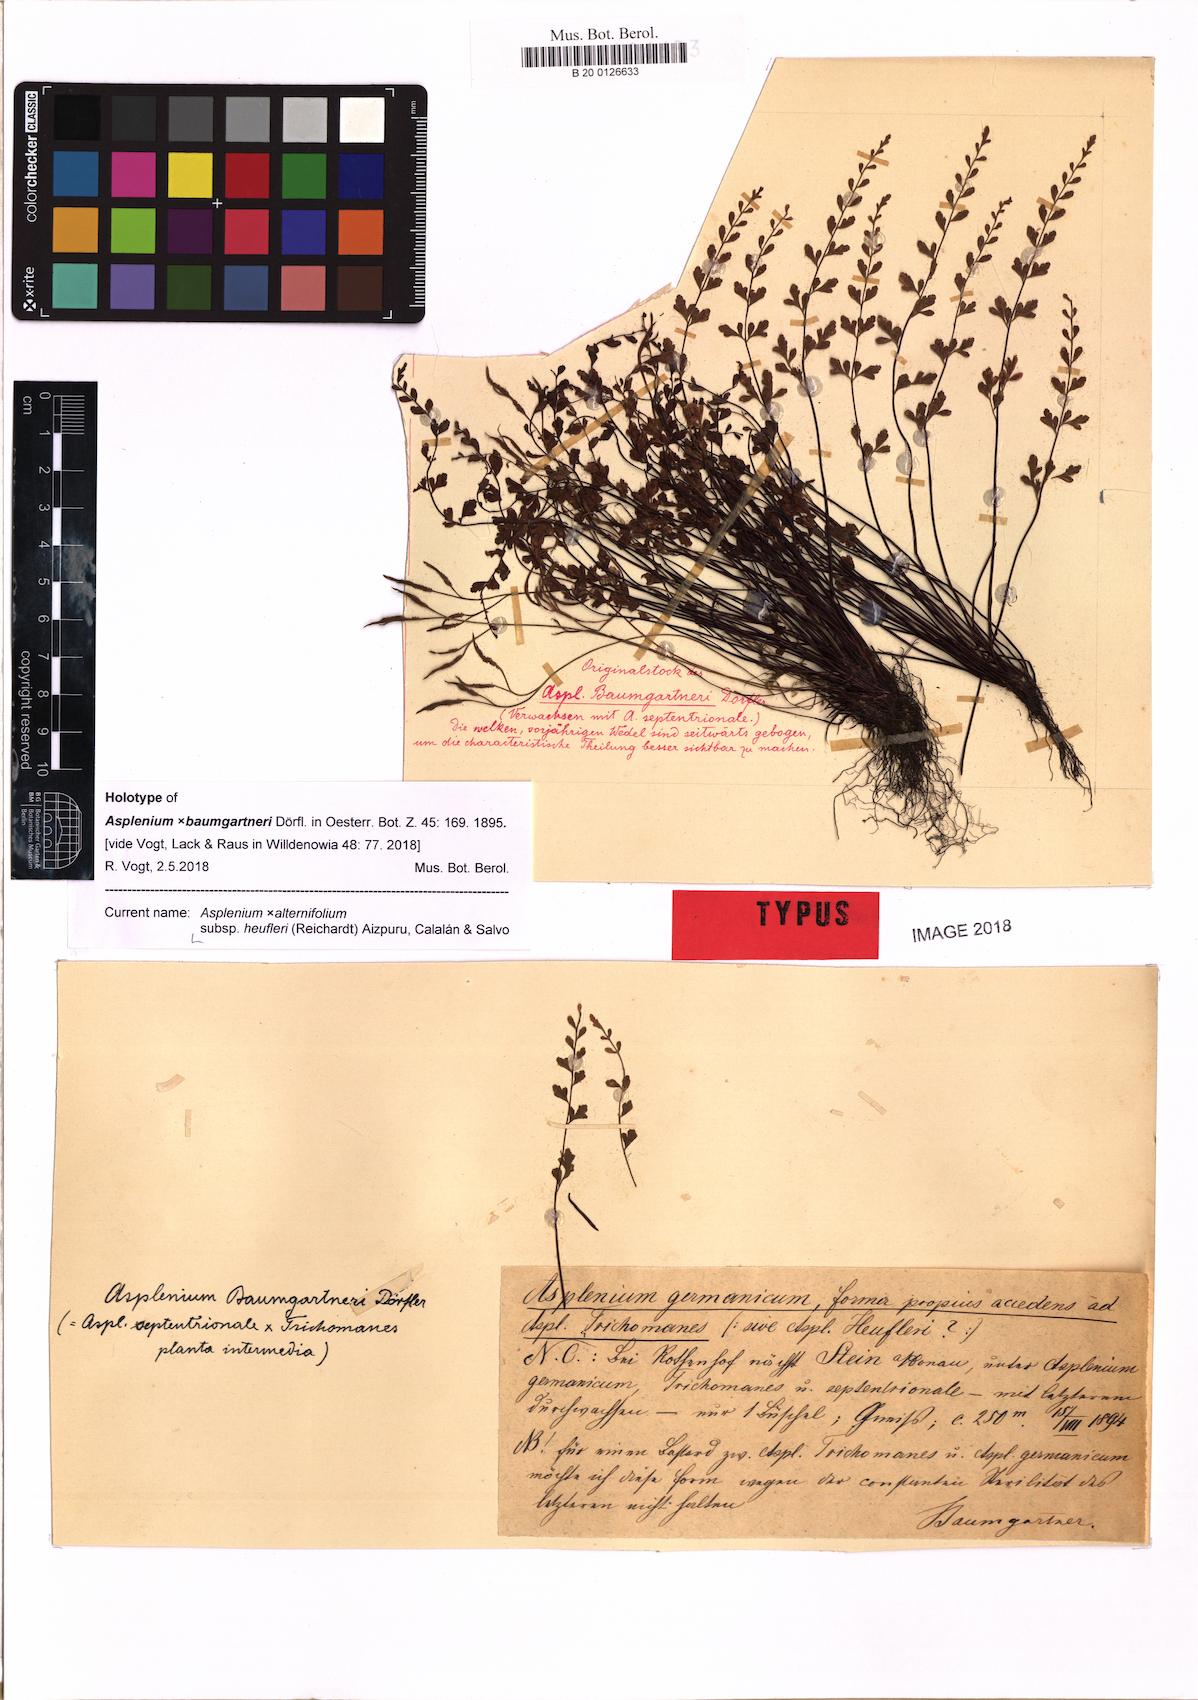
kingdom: Plantae
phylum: Tracheophyta
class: Polypodiopsida
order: Polypodiales
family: Aspleniaceae
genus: Asplenium
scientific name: Asplenium heufleri
